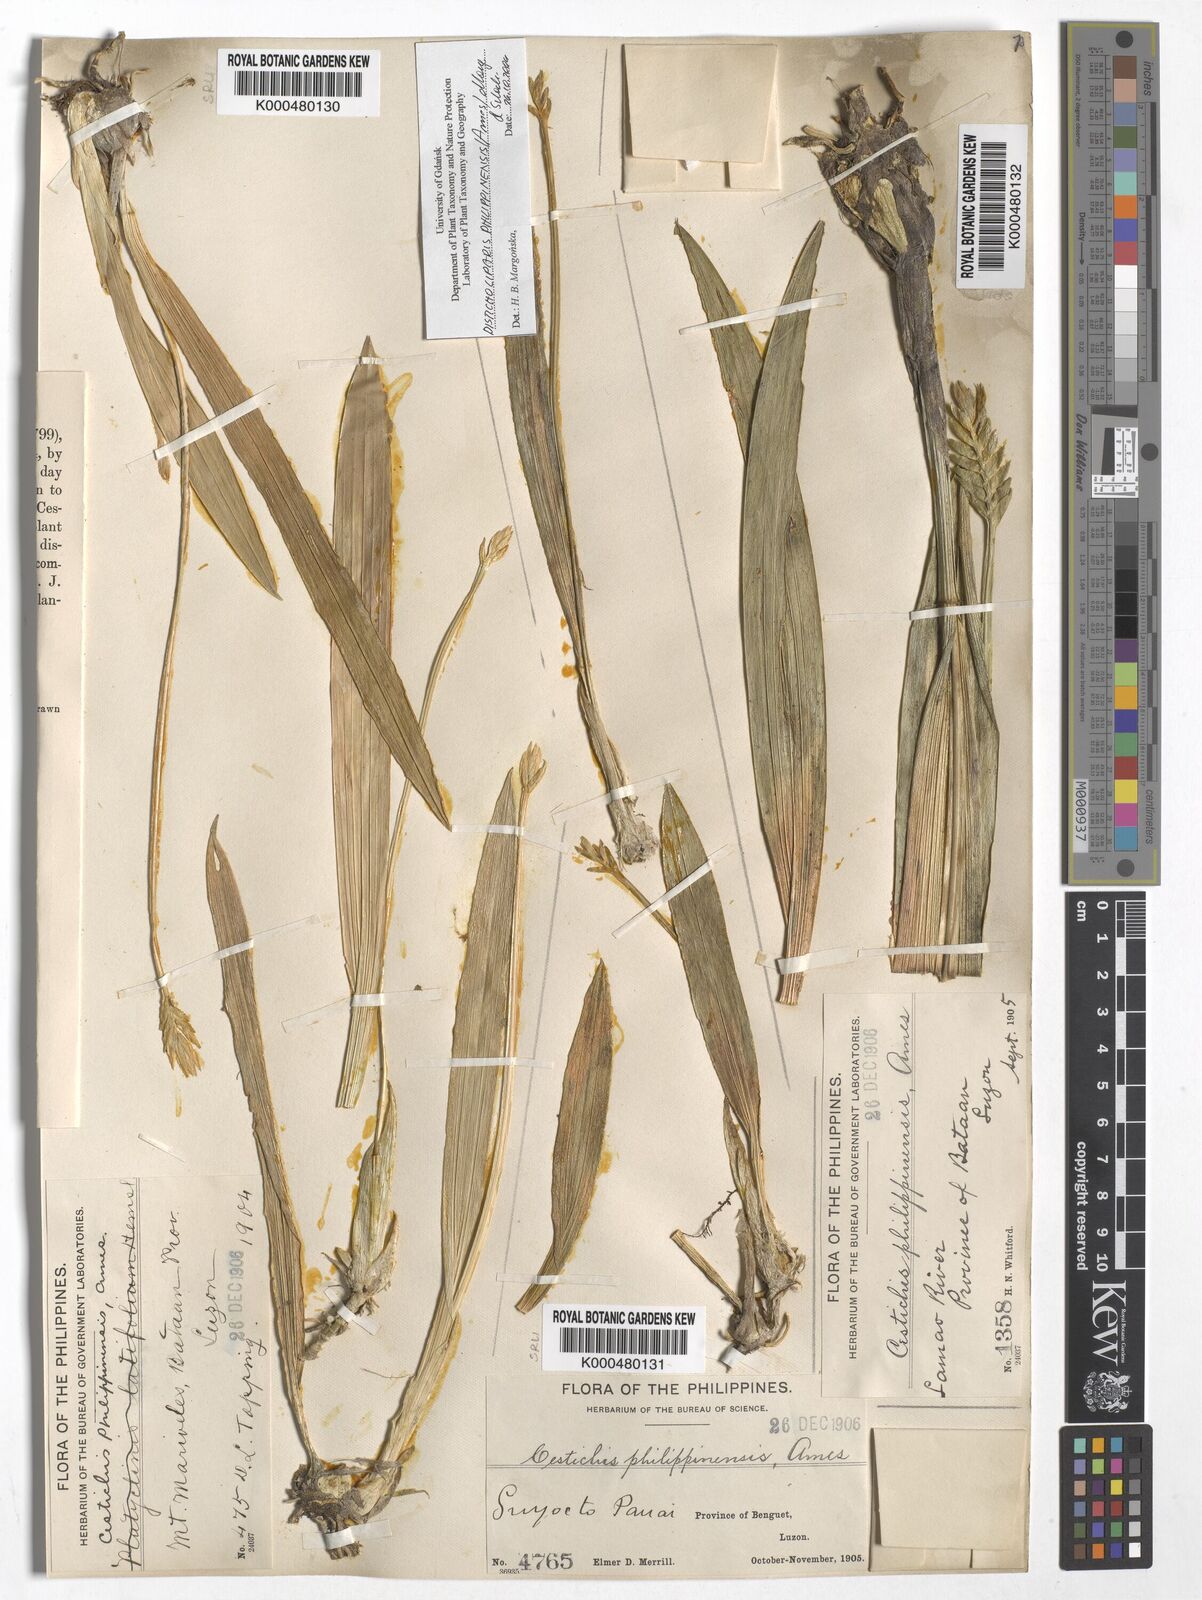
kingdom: Plantae
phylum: Tracheophyta
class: Liliopsida
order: Asparagales
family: Orchidaceae
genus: Liparis
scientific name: Liparis philippinensis
